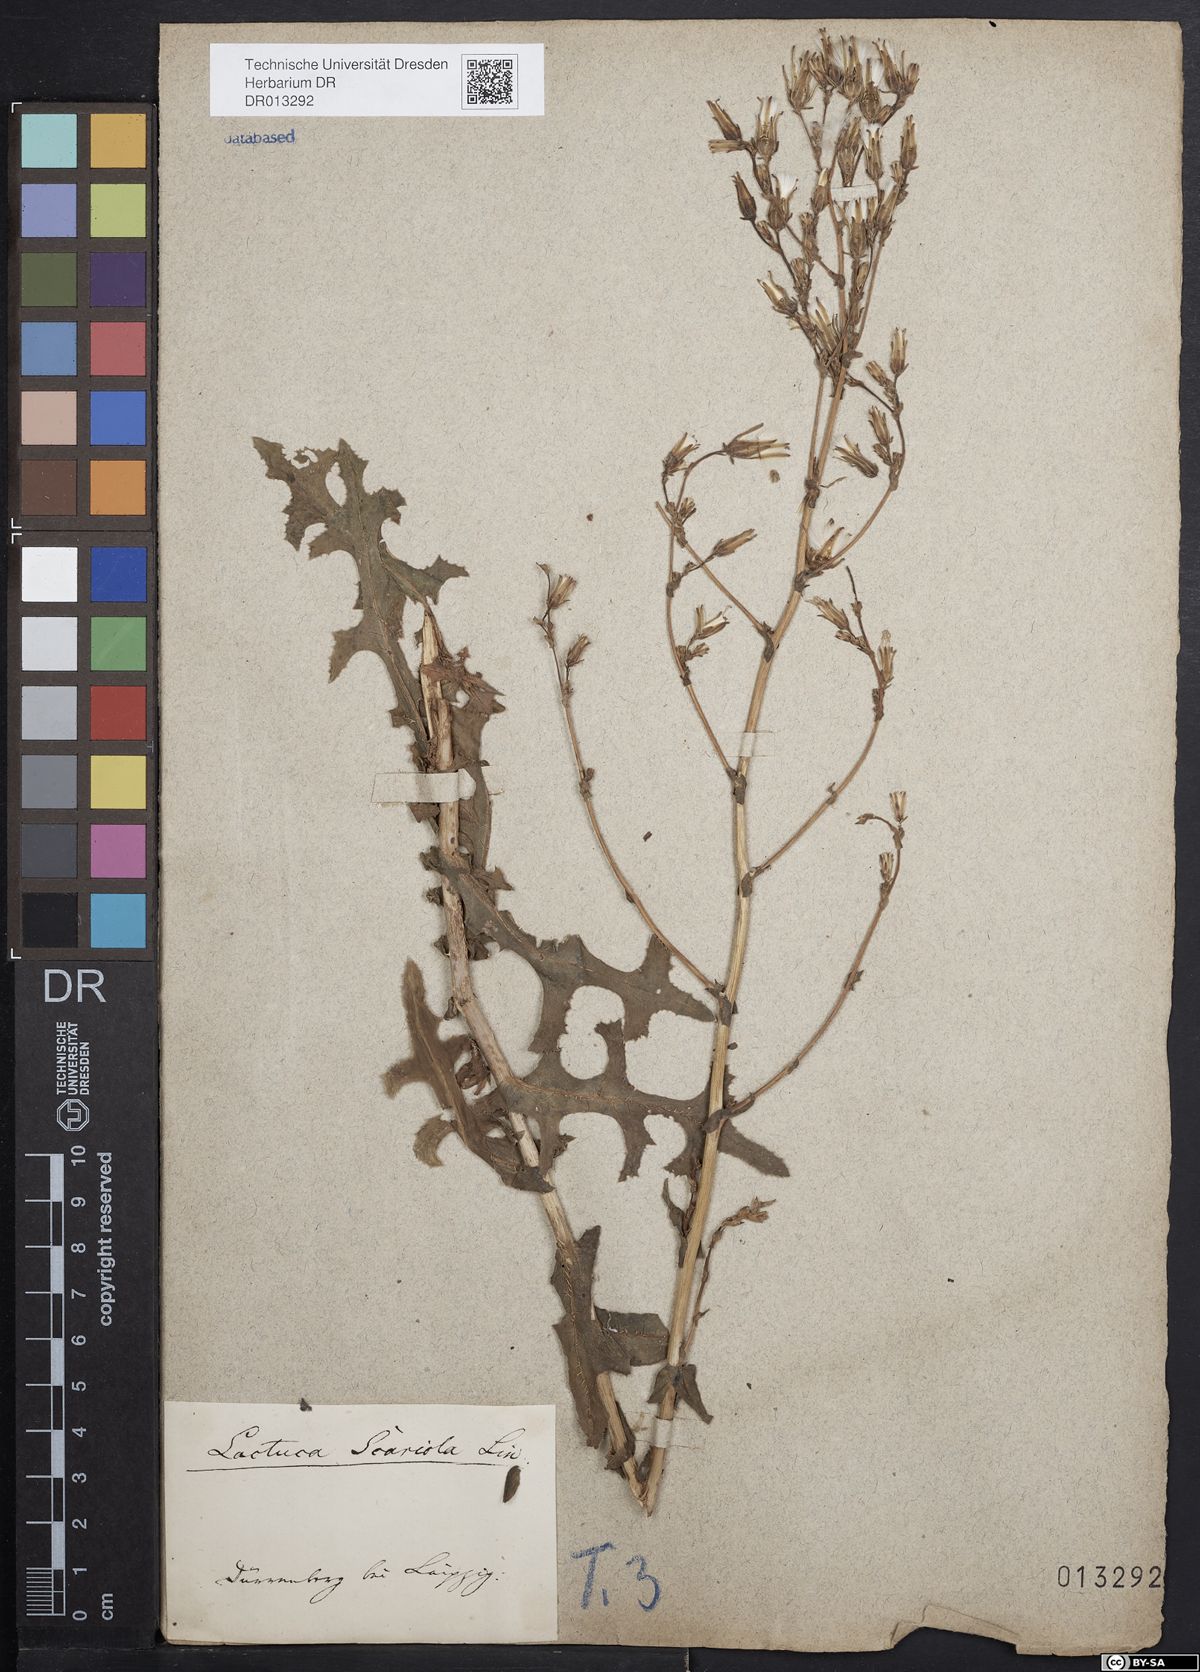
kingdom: Plantae
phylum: Tracheophyta
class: Magnoliopsida
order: Asterales
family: Asteraceae
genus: Lactuca
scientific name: Lactuca serriola
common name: Prickly lettuce
